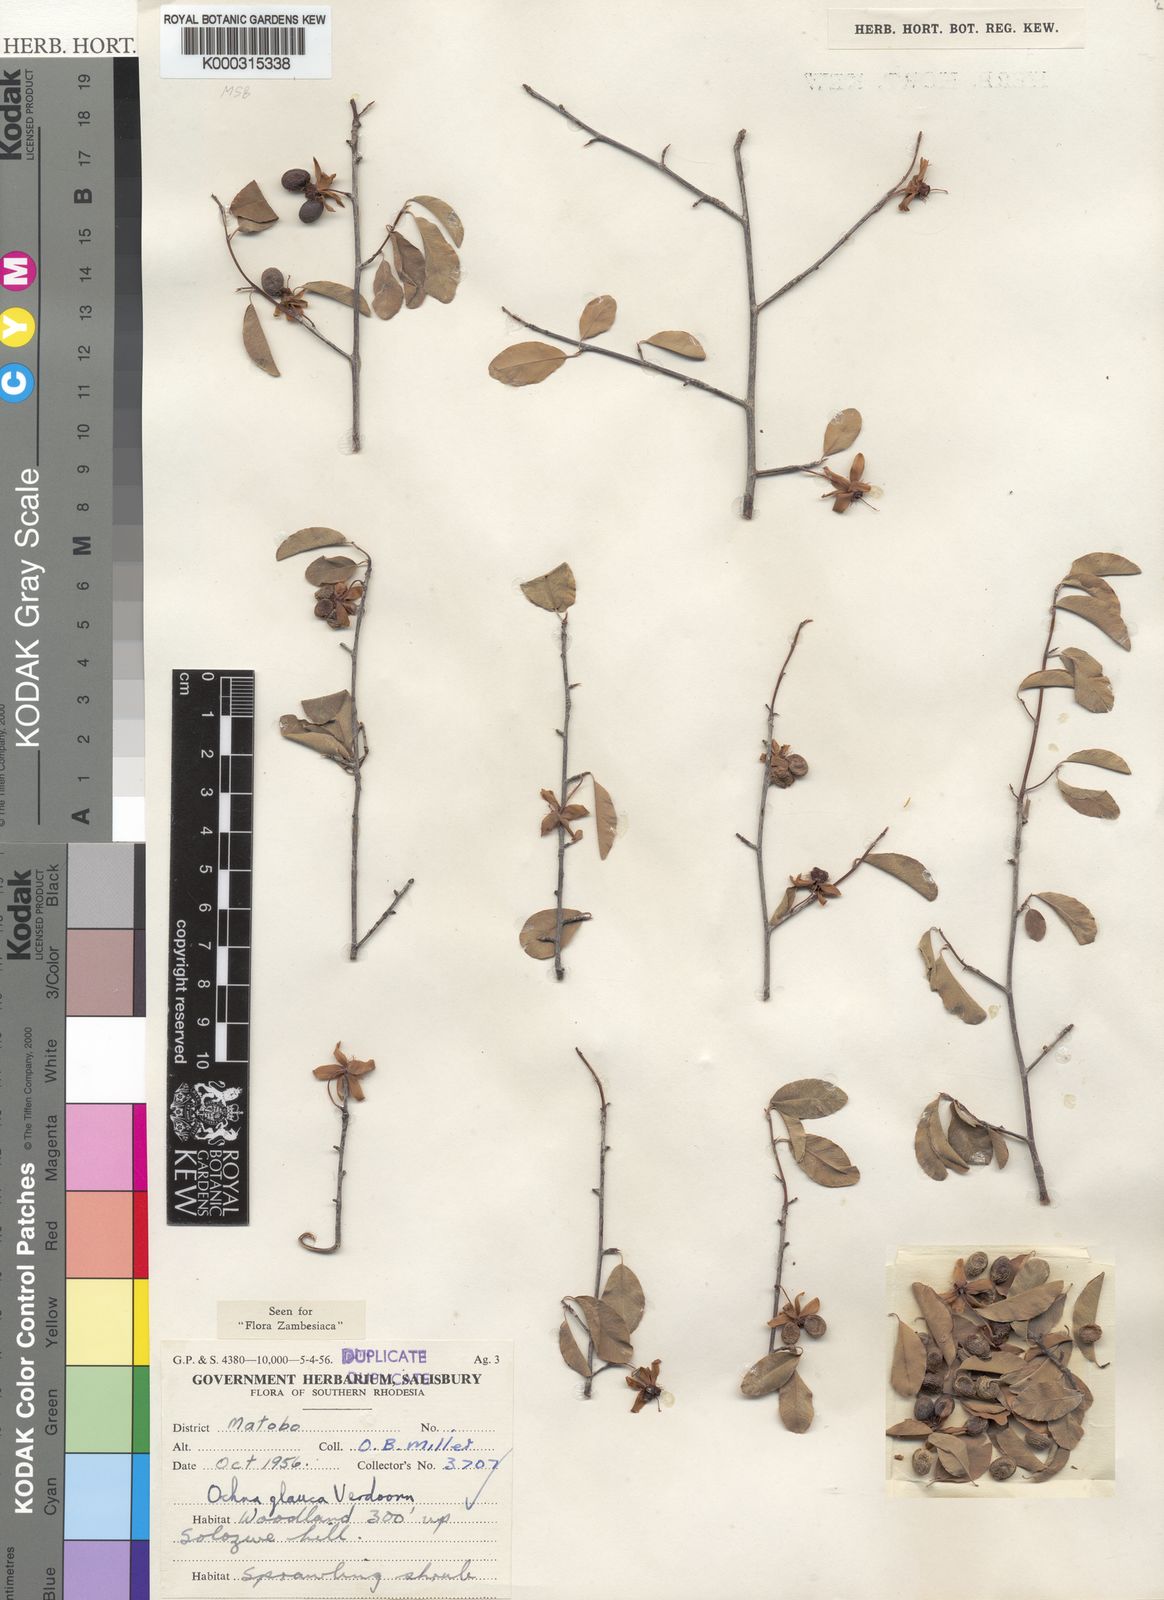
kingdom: Plantae
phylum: Tracheophyta
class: Magnoliopsida
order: Malpighiales
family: Ochnaceae
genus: Ochna
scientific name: Ochna glauca
